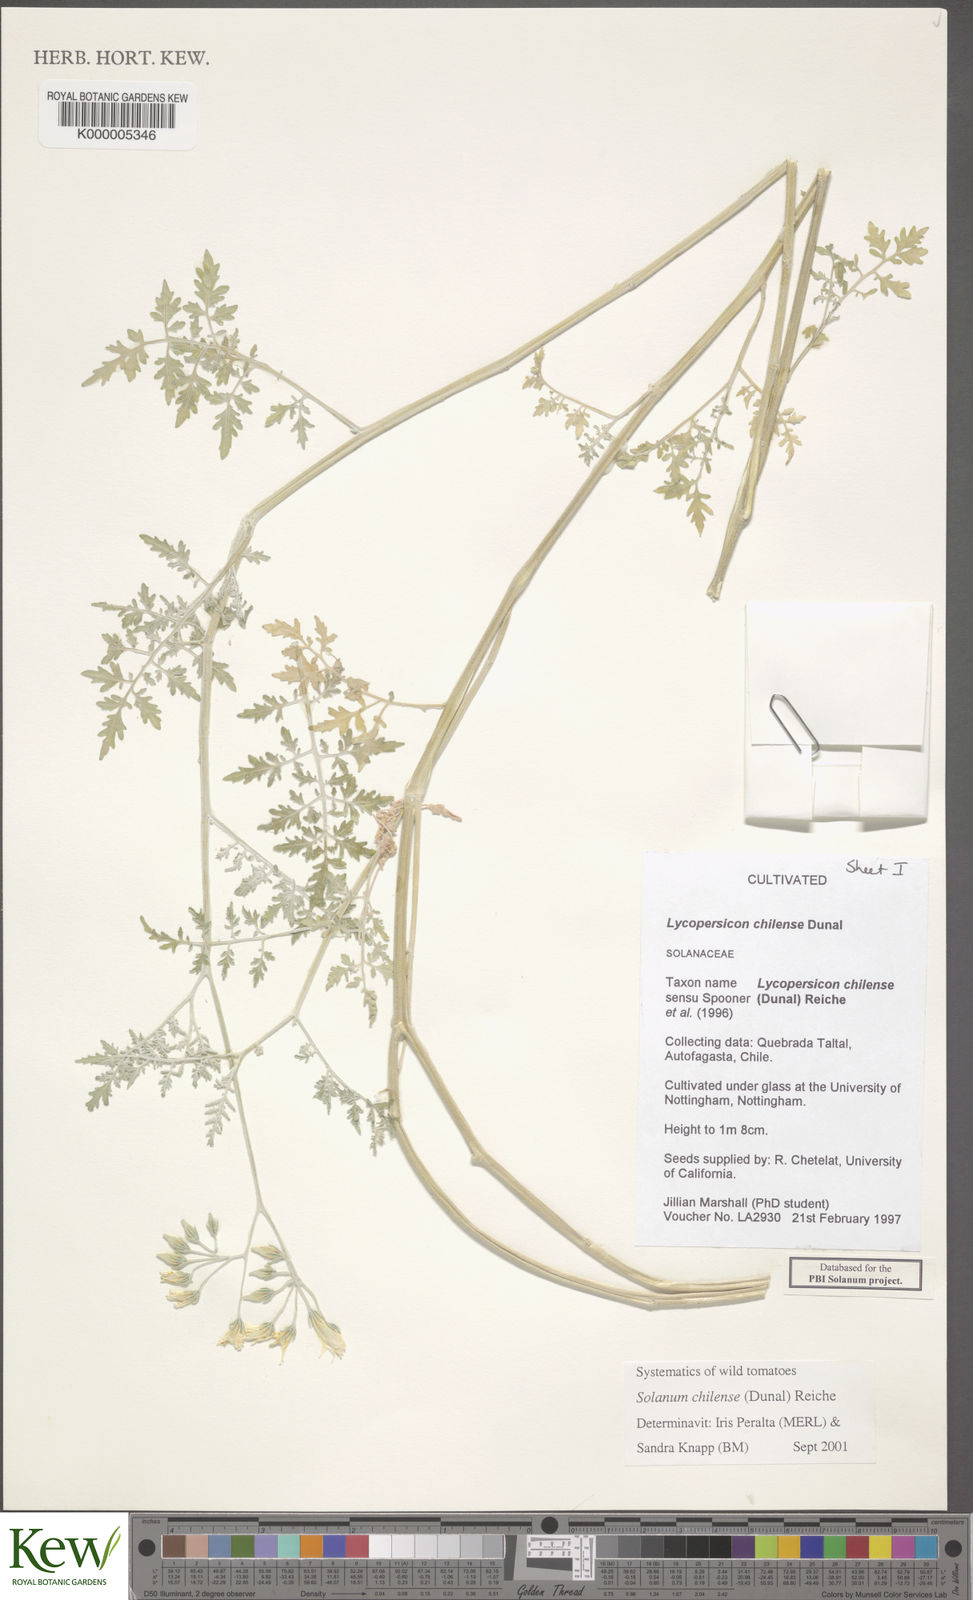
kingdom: Plantae
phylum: Tracheophyta
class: Magnoliopsida
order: Solanales
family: Solanaceae
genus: Solanum
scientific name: Solanum acropterum
